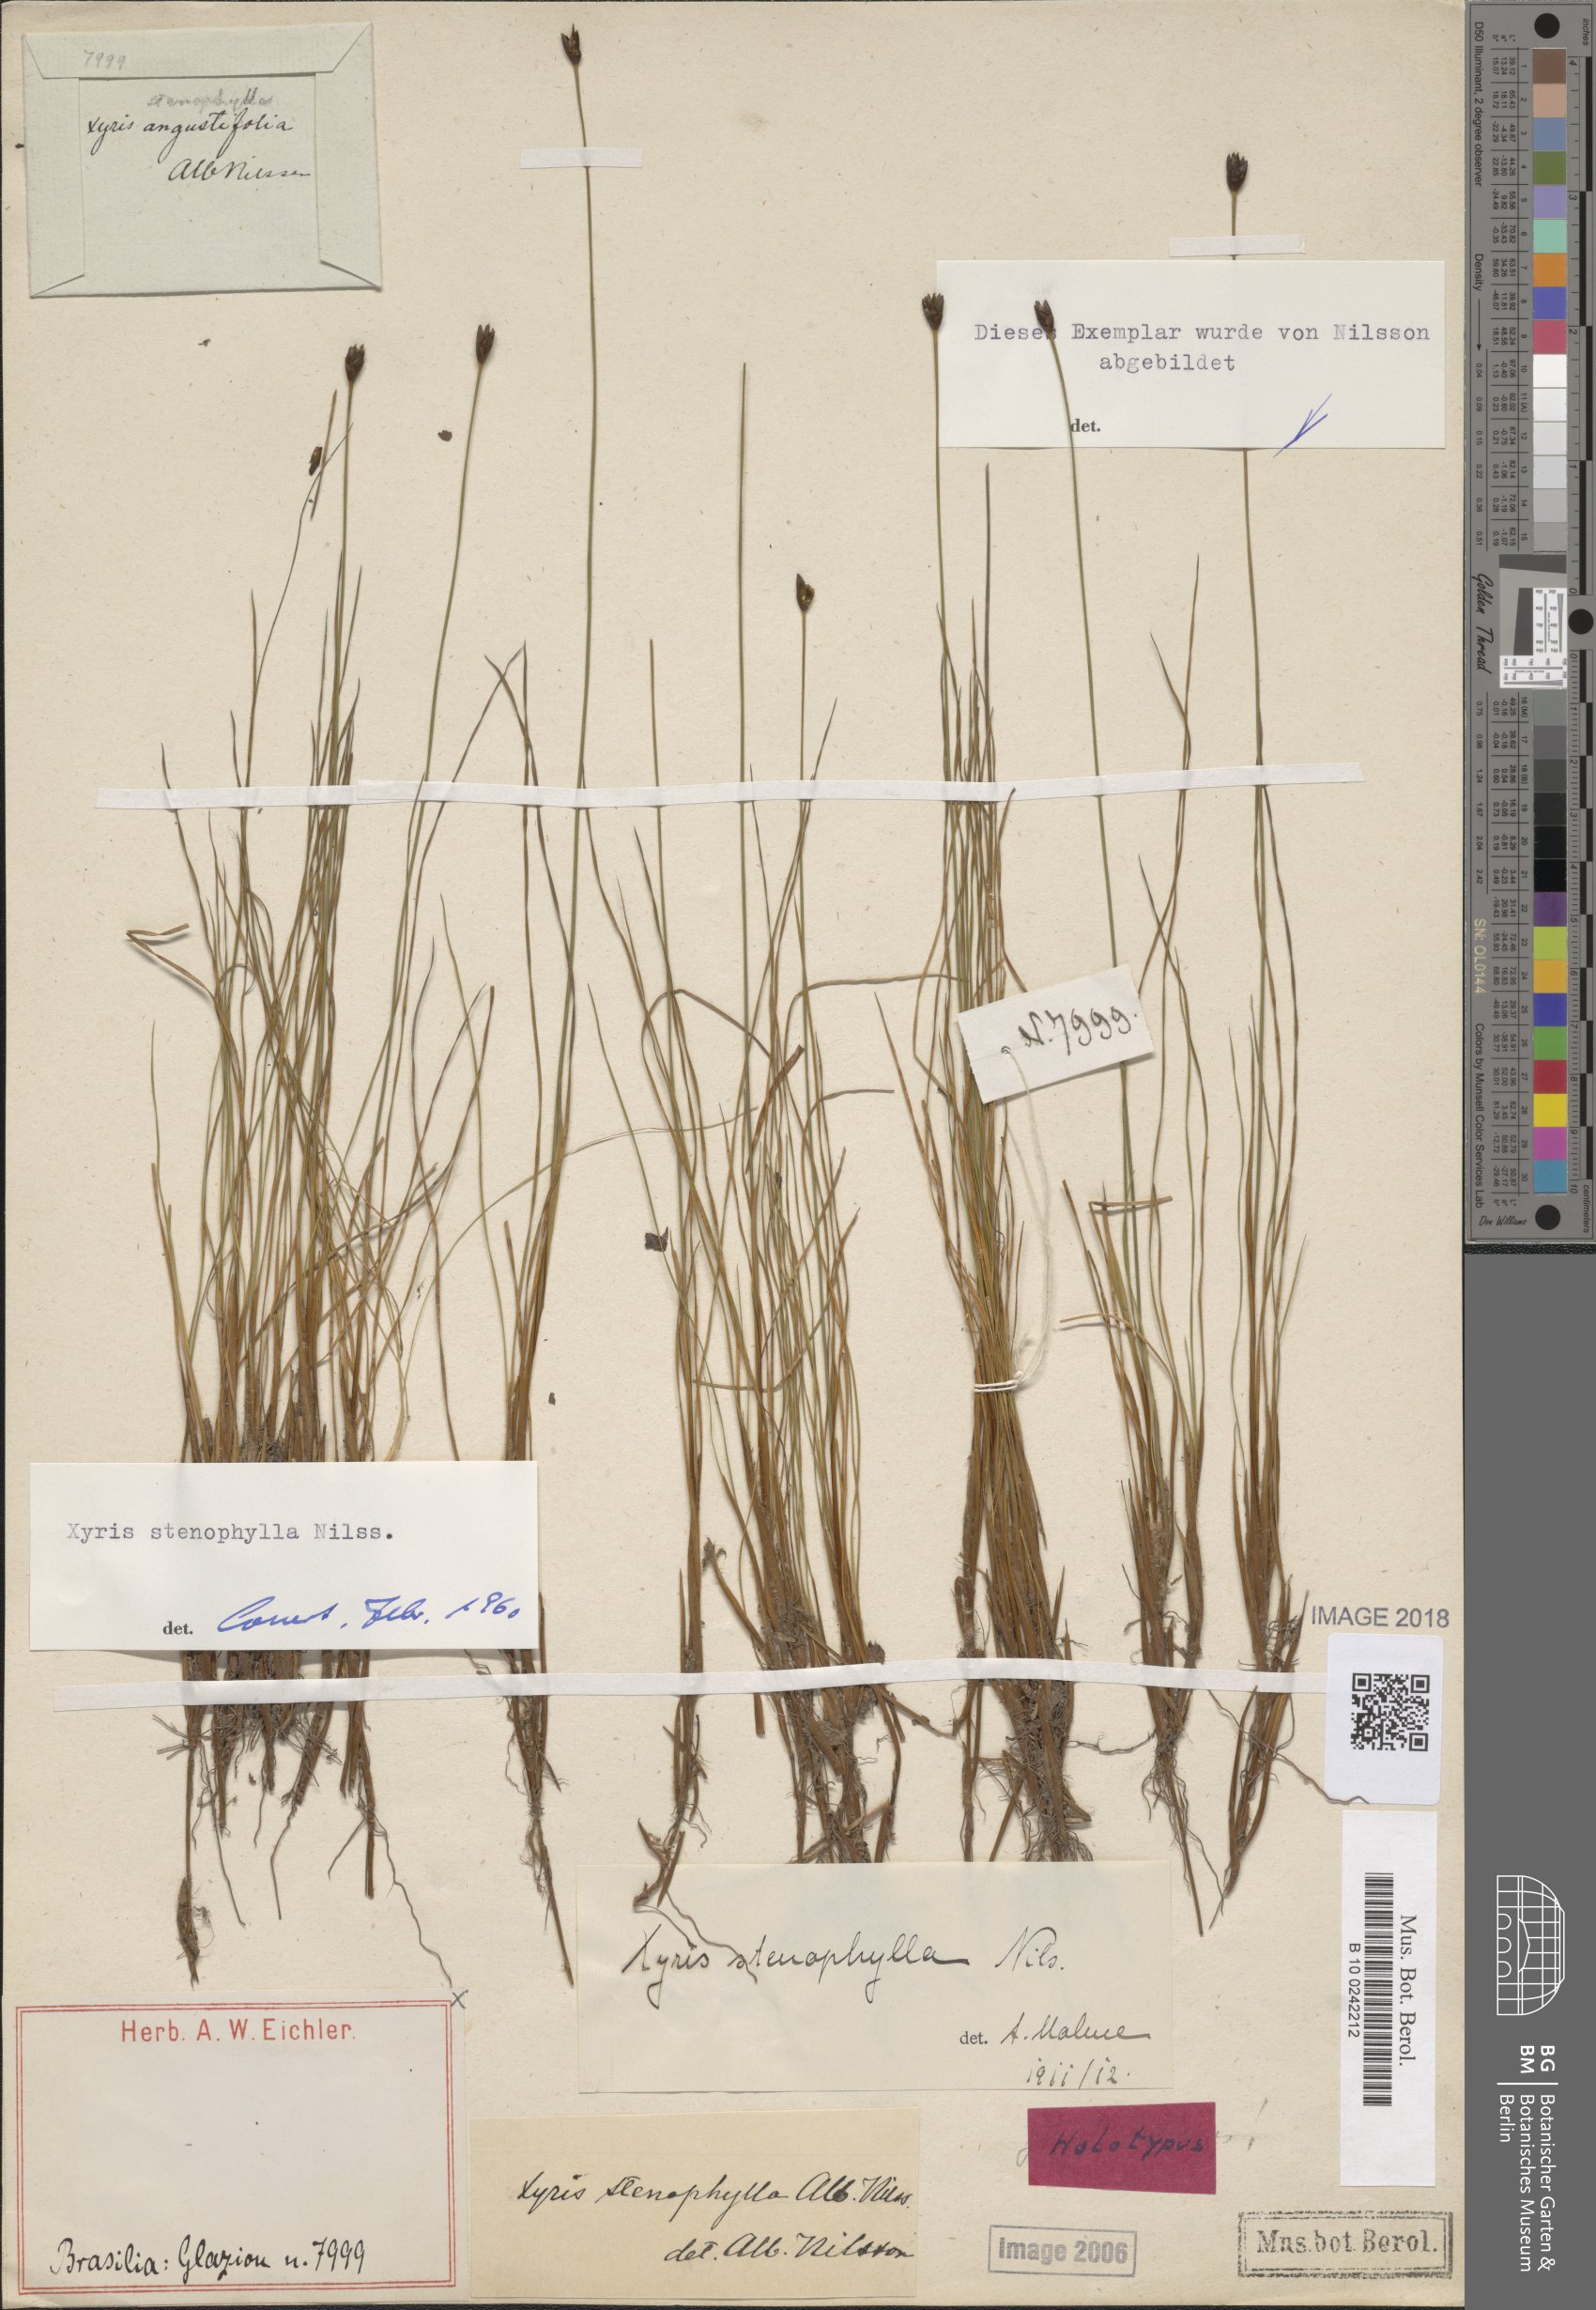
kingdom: Plantae
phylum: Tracheophyta
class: Liliopsida
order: Poales
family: Xyridaceae
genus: Xyris
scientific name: Xyris stenophylla
